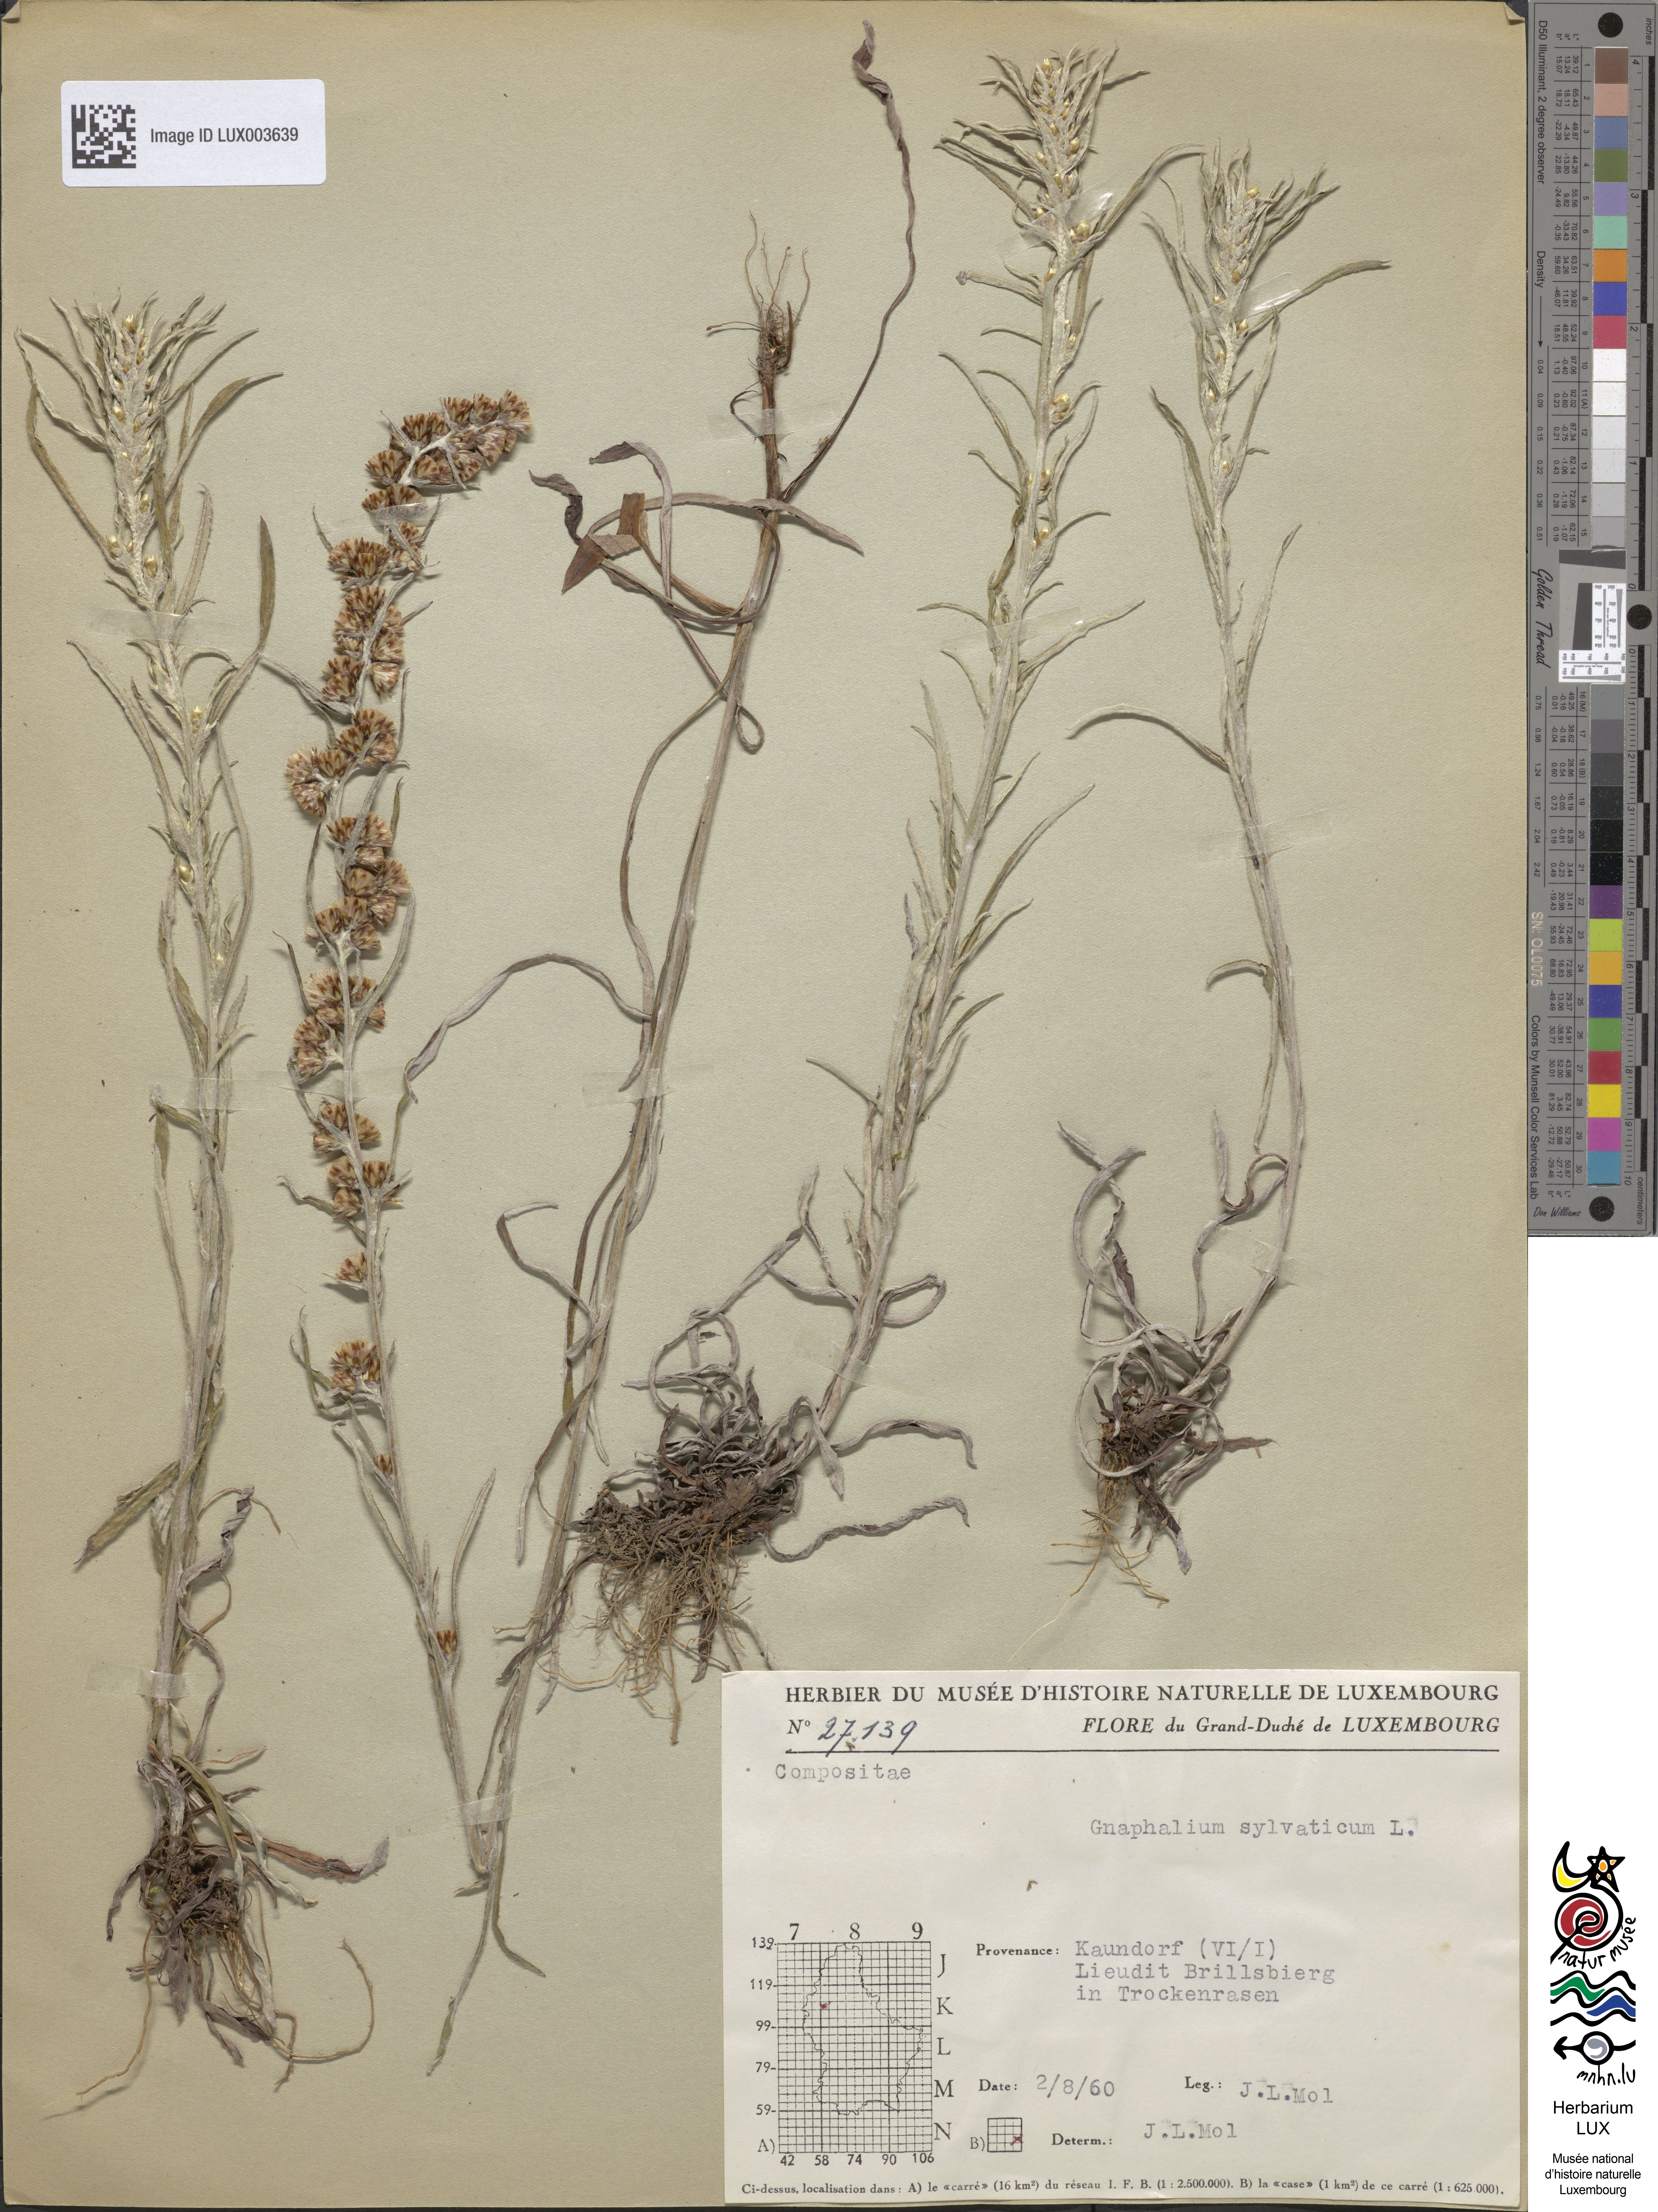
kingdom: Plantae
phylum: Tracheophyta
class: Magnoliopsida
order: Asterales
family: Asteraceae
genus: Omalotheca
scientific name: Omalotheca sylvatica
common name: Heath cudweed
